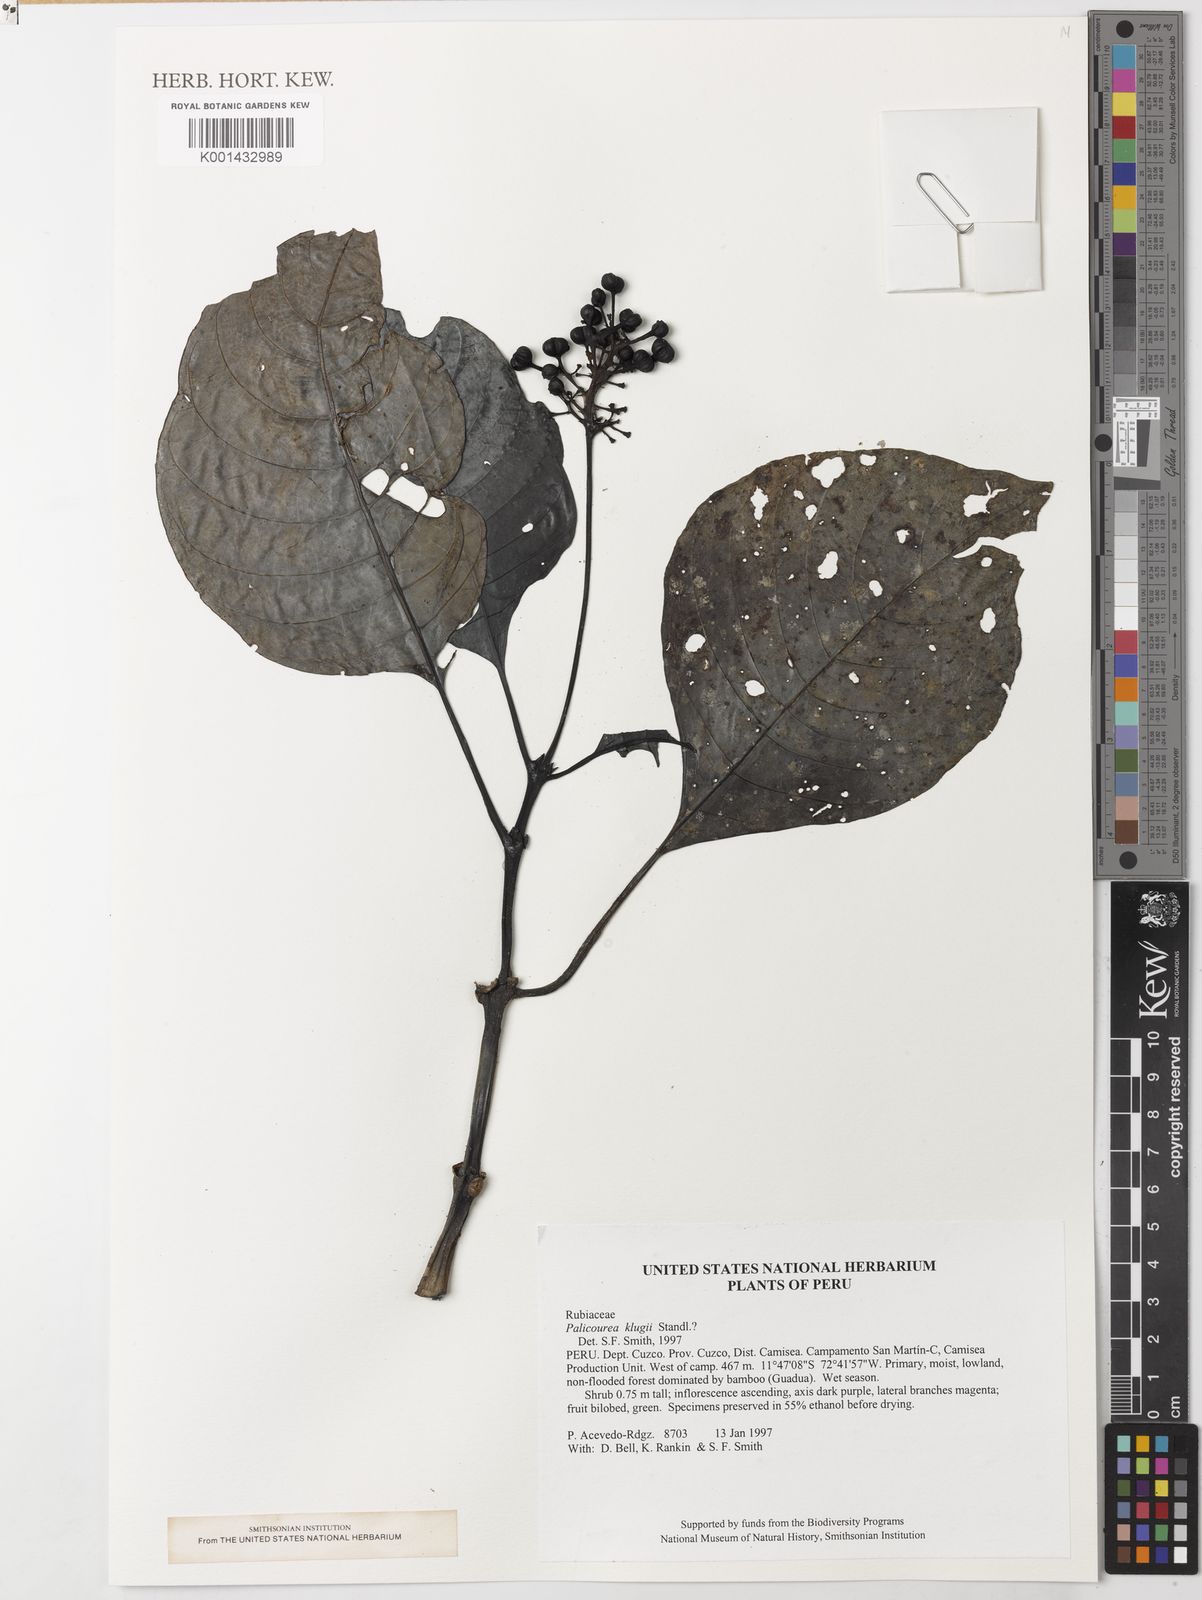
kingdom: Plantae
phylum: Tracheophyta
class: Magnoliopsida
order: Gentianales
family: Rubiaceae
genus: Palicourea
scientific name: Palicourea nigricans
